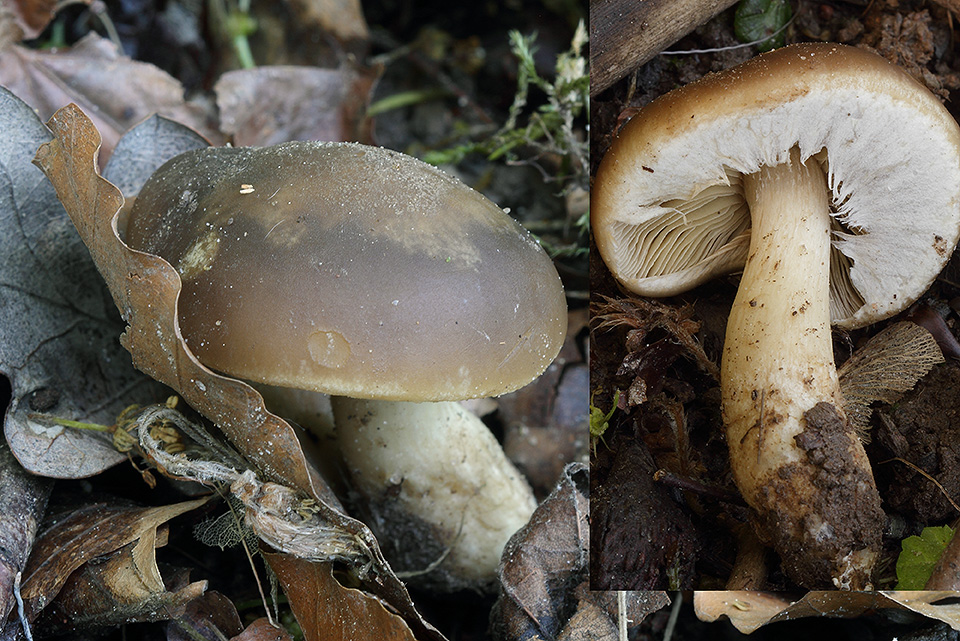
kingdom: Fungi
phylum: Basidiomycota
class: Agaricomycetes
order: Agaricales
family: Strophariaceae
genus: Agrocybe
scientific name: Agrocybe praecox
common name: tidlig agerhat
